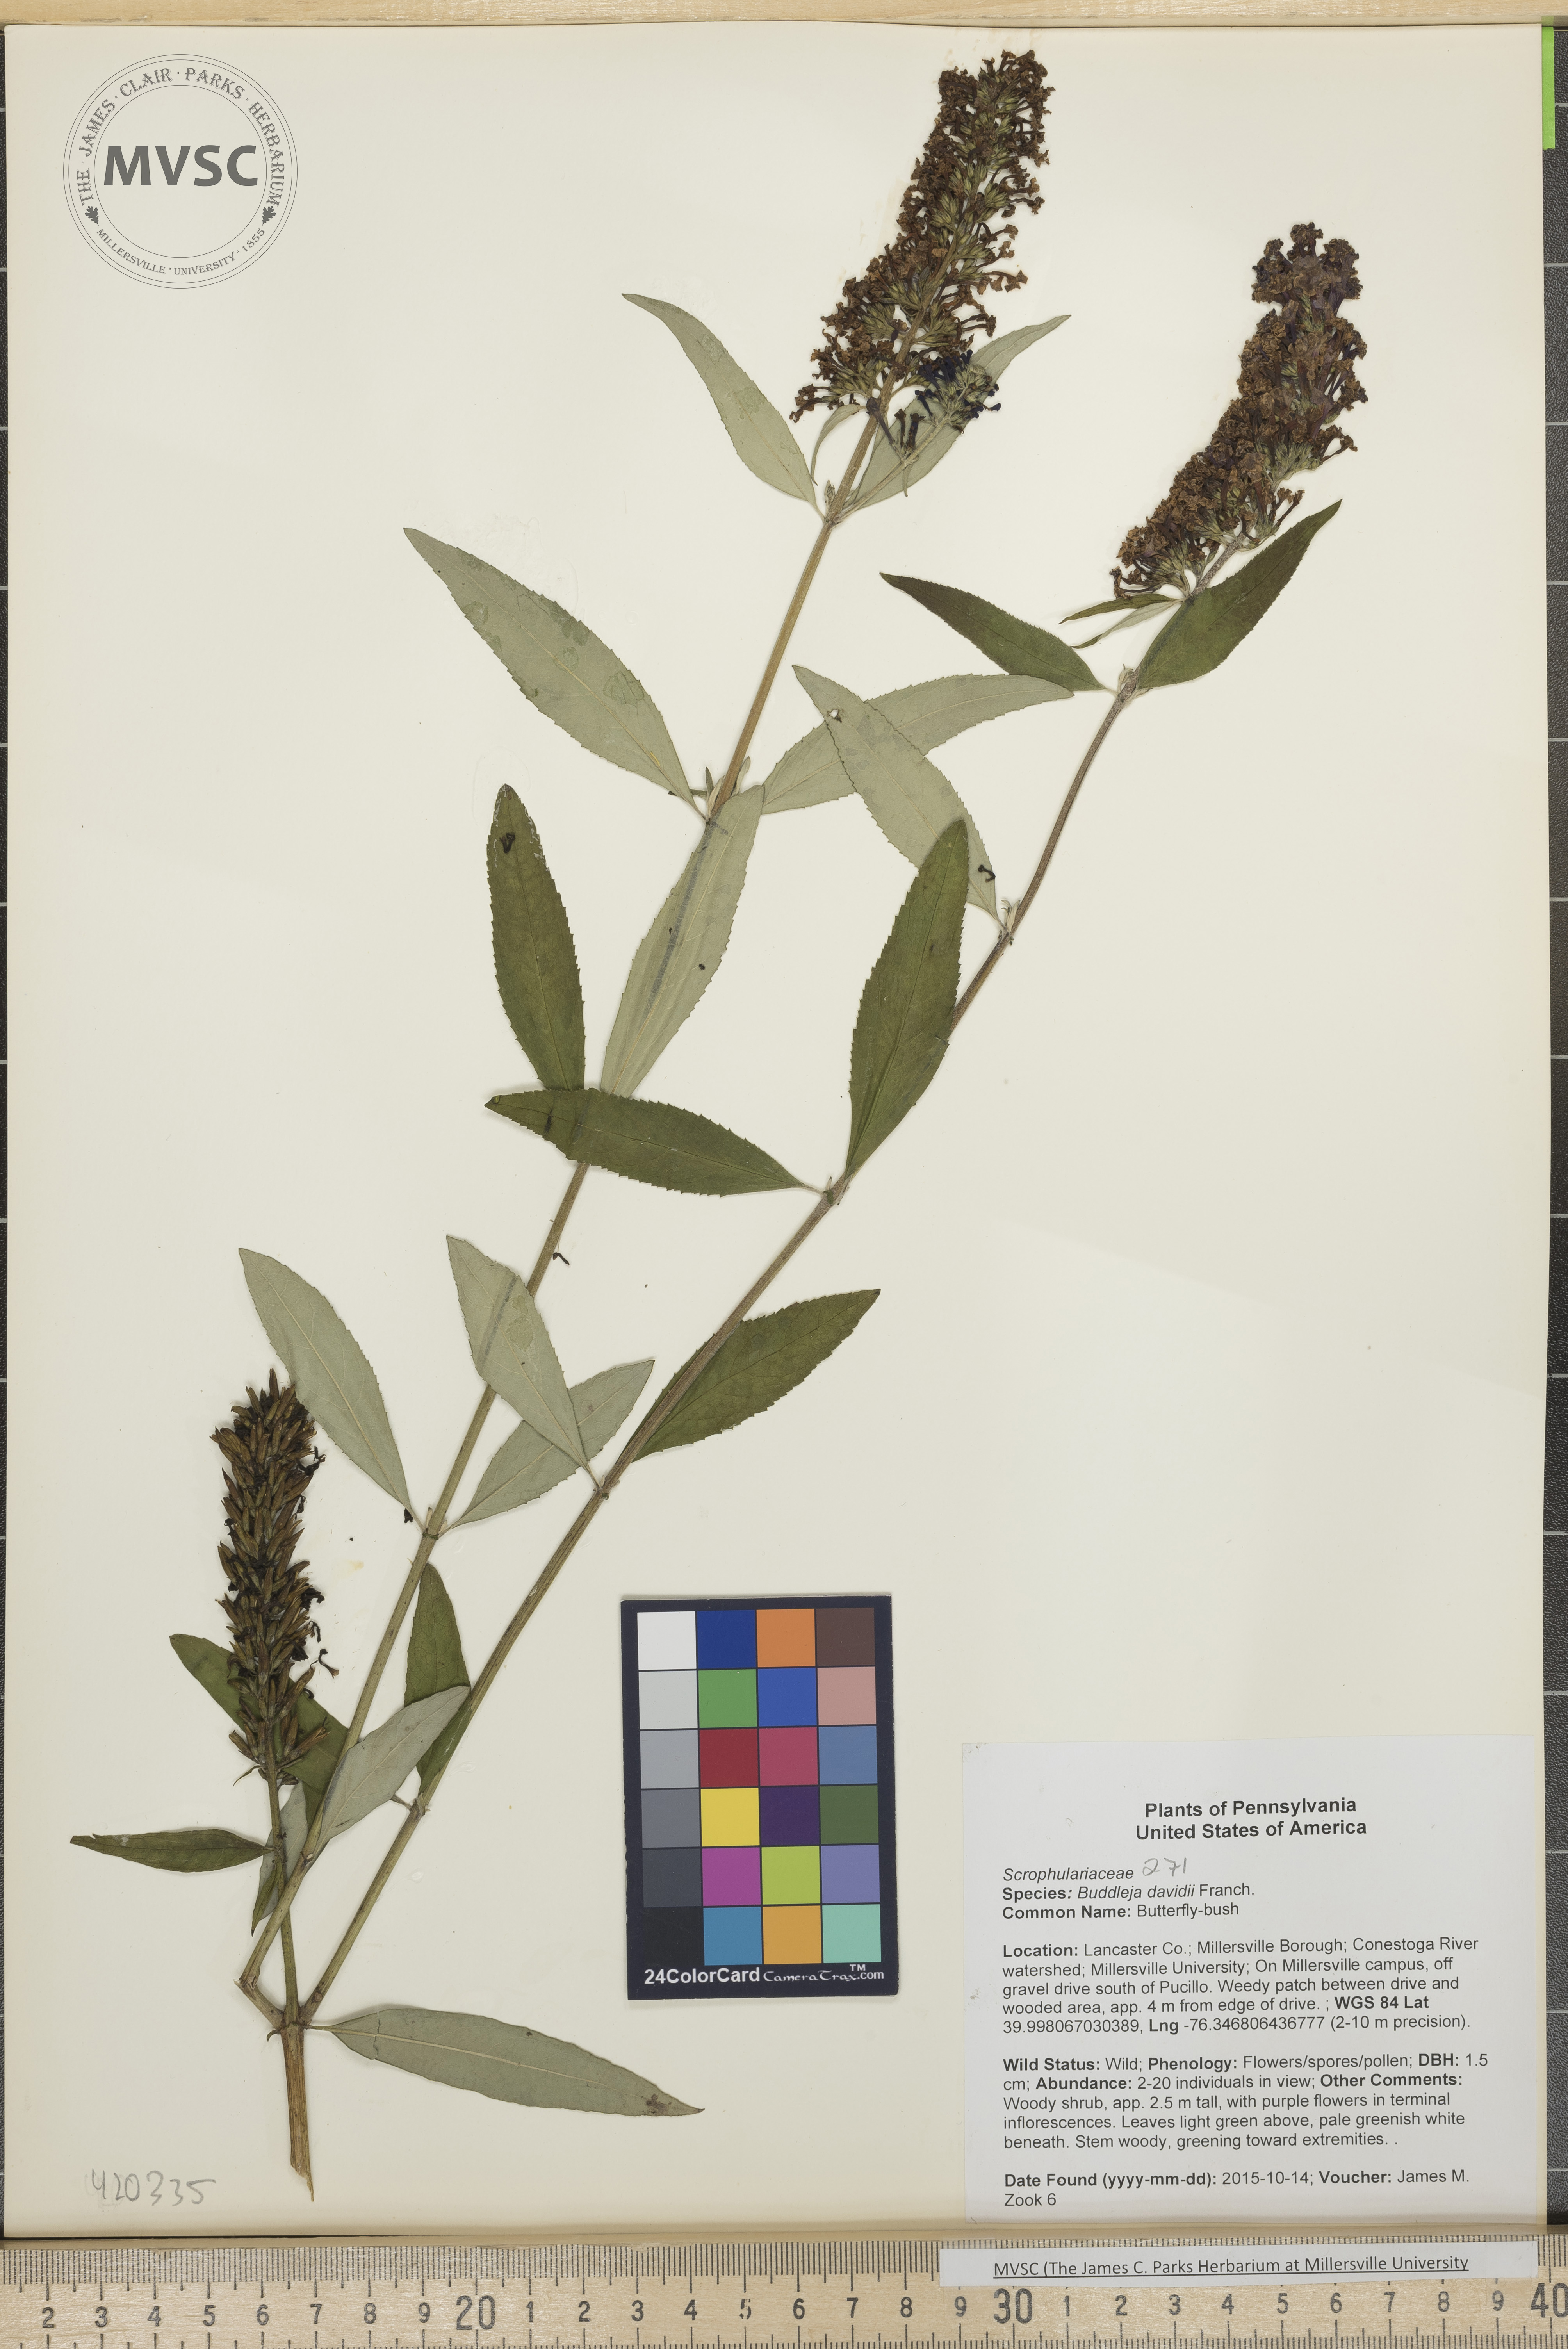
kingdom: Plantae
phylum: Tracheophyta
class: Magnoliopsida
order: Lamiales
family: Scrophulariaceae
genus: Buddleja
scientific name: Buddleja davidii
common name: Butterfly-bush
